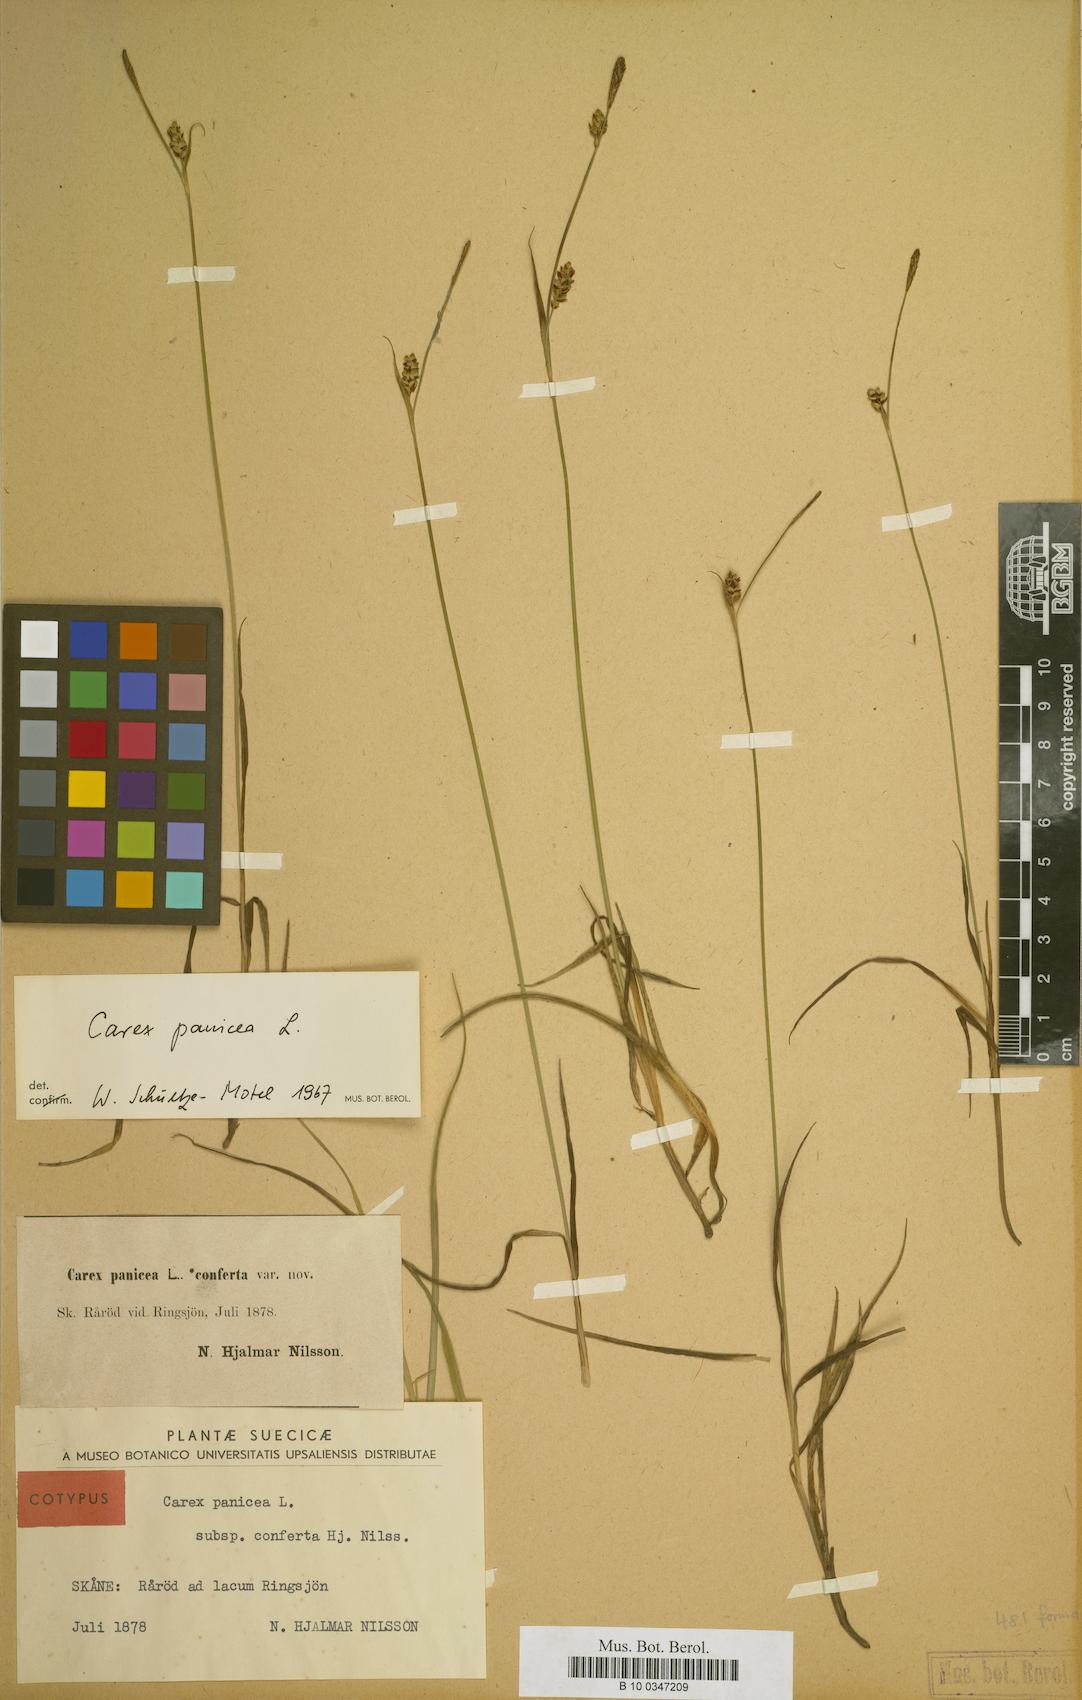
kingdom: Plantae
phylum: Tracheophyta
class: Liliopsida
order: Poales
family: Cyperaceae
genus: Carex
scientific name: Carex panicea
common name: Carnation sedge
